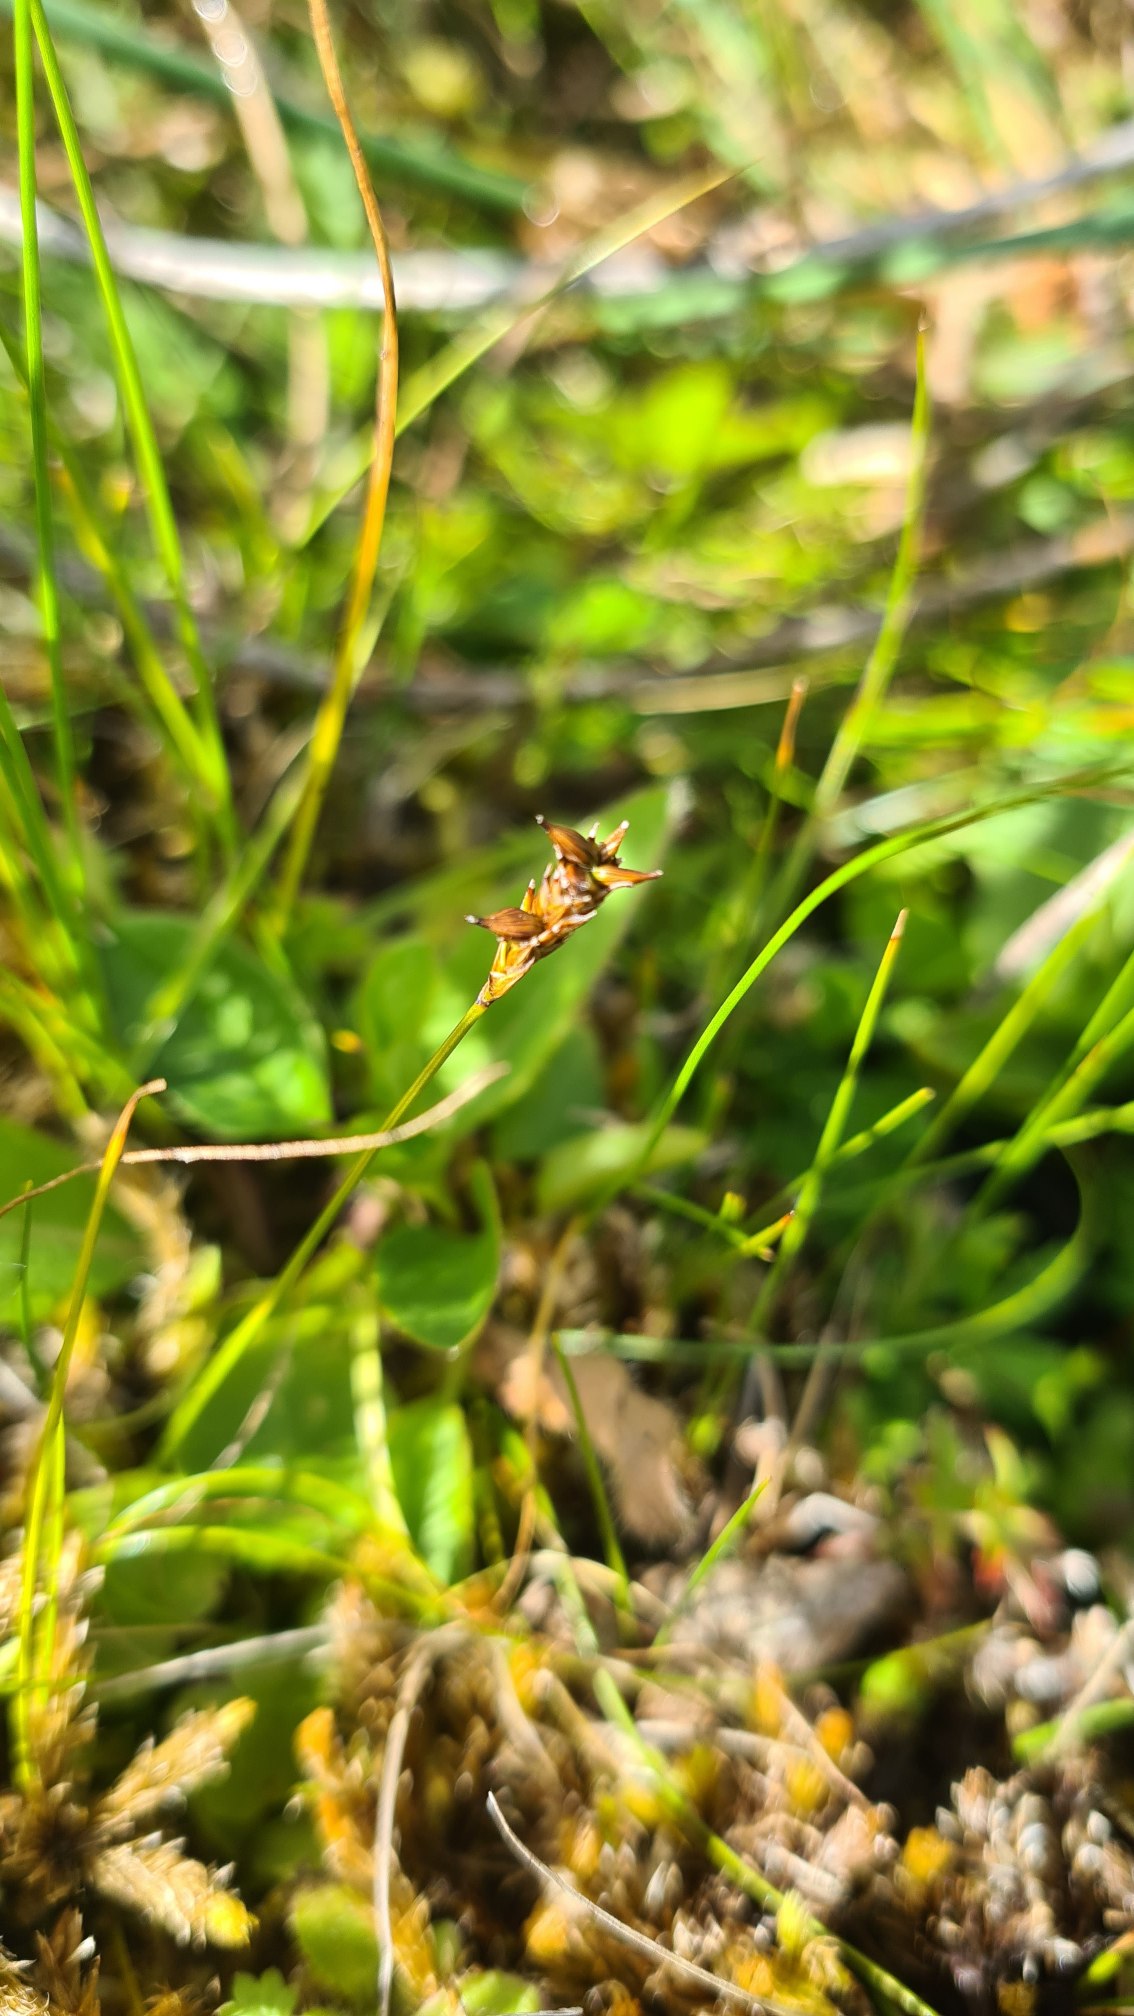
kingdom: Plantae
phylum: Tracheophyta
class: Liliopsida
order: Poales
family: Cyperaceae
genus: Carex
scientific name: Carex dioica
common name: Tvebo star
